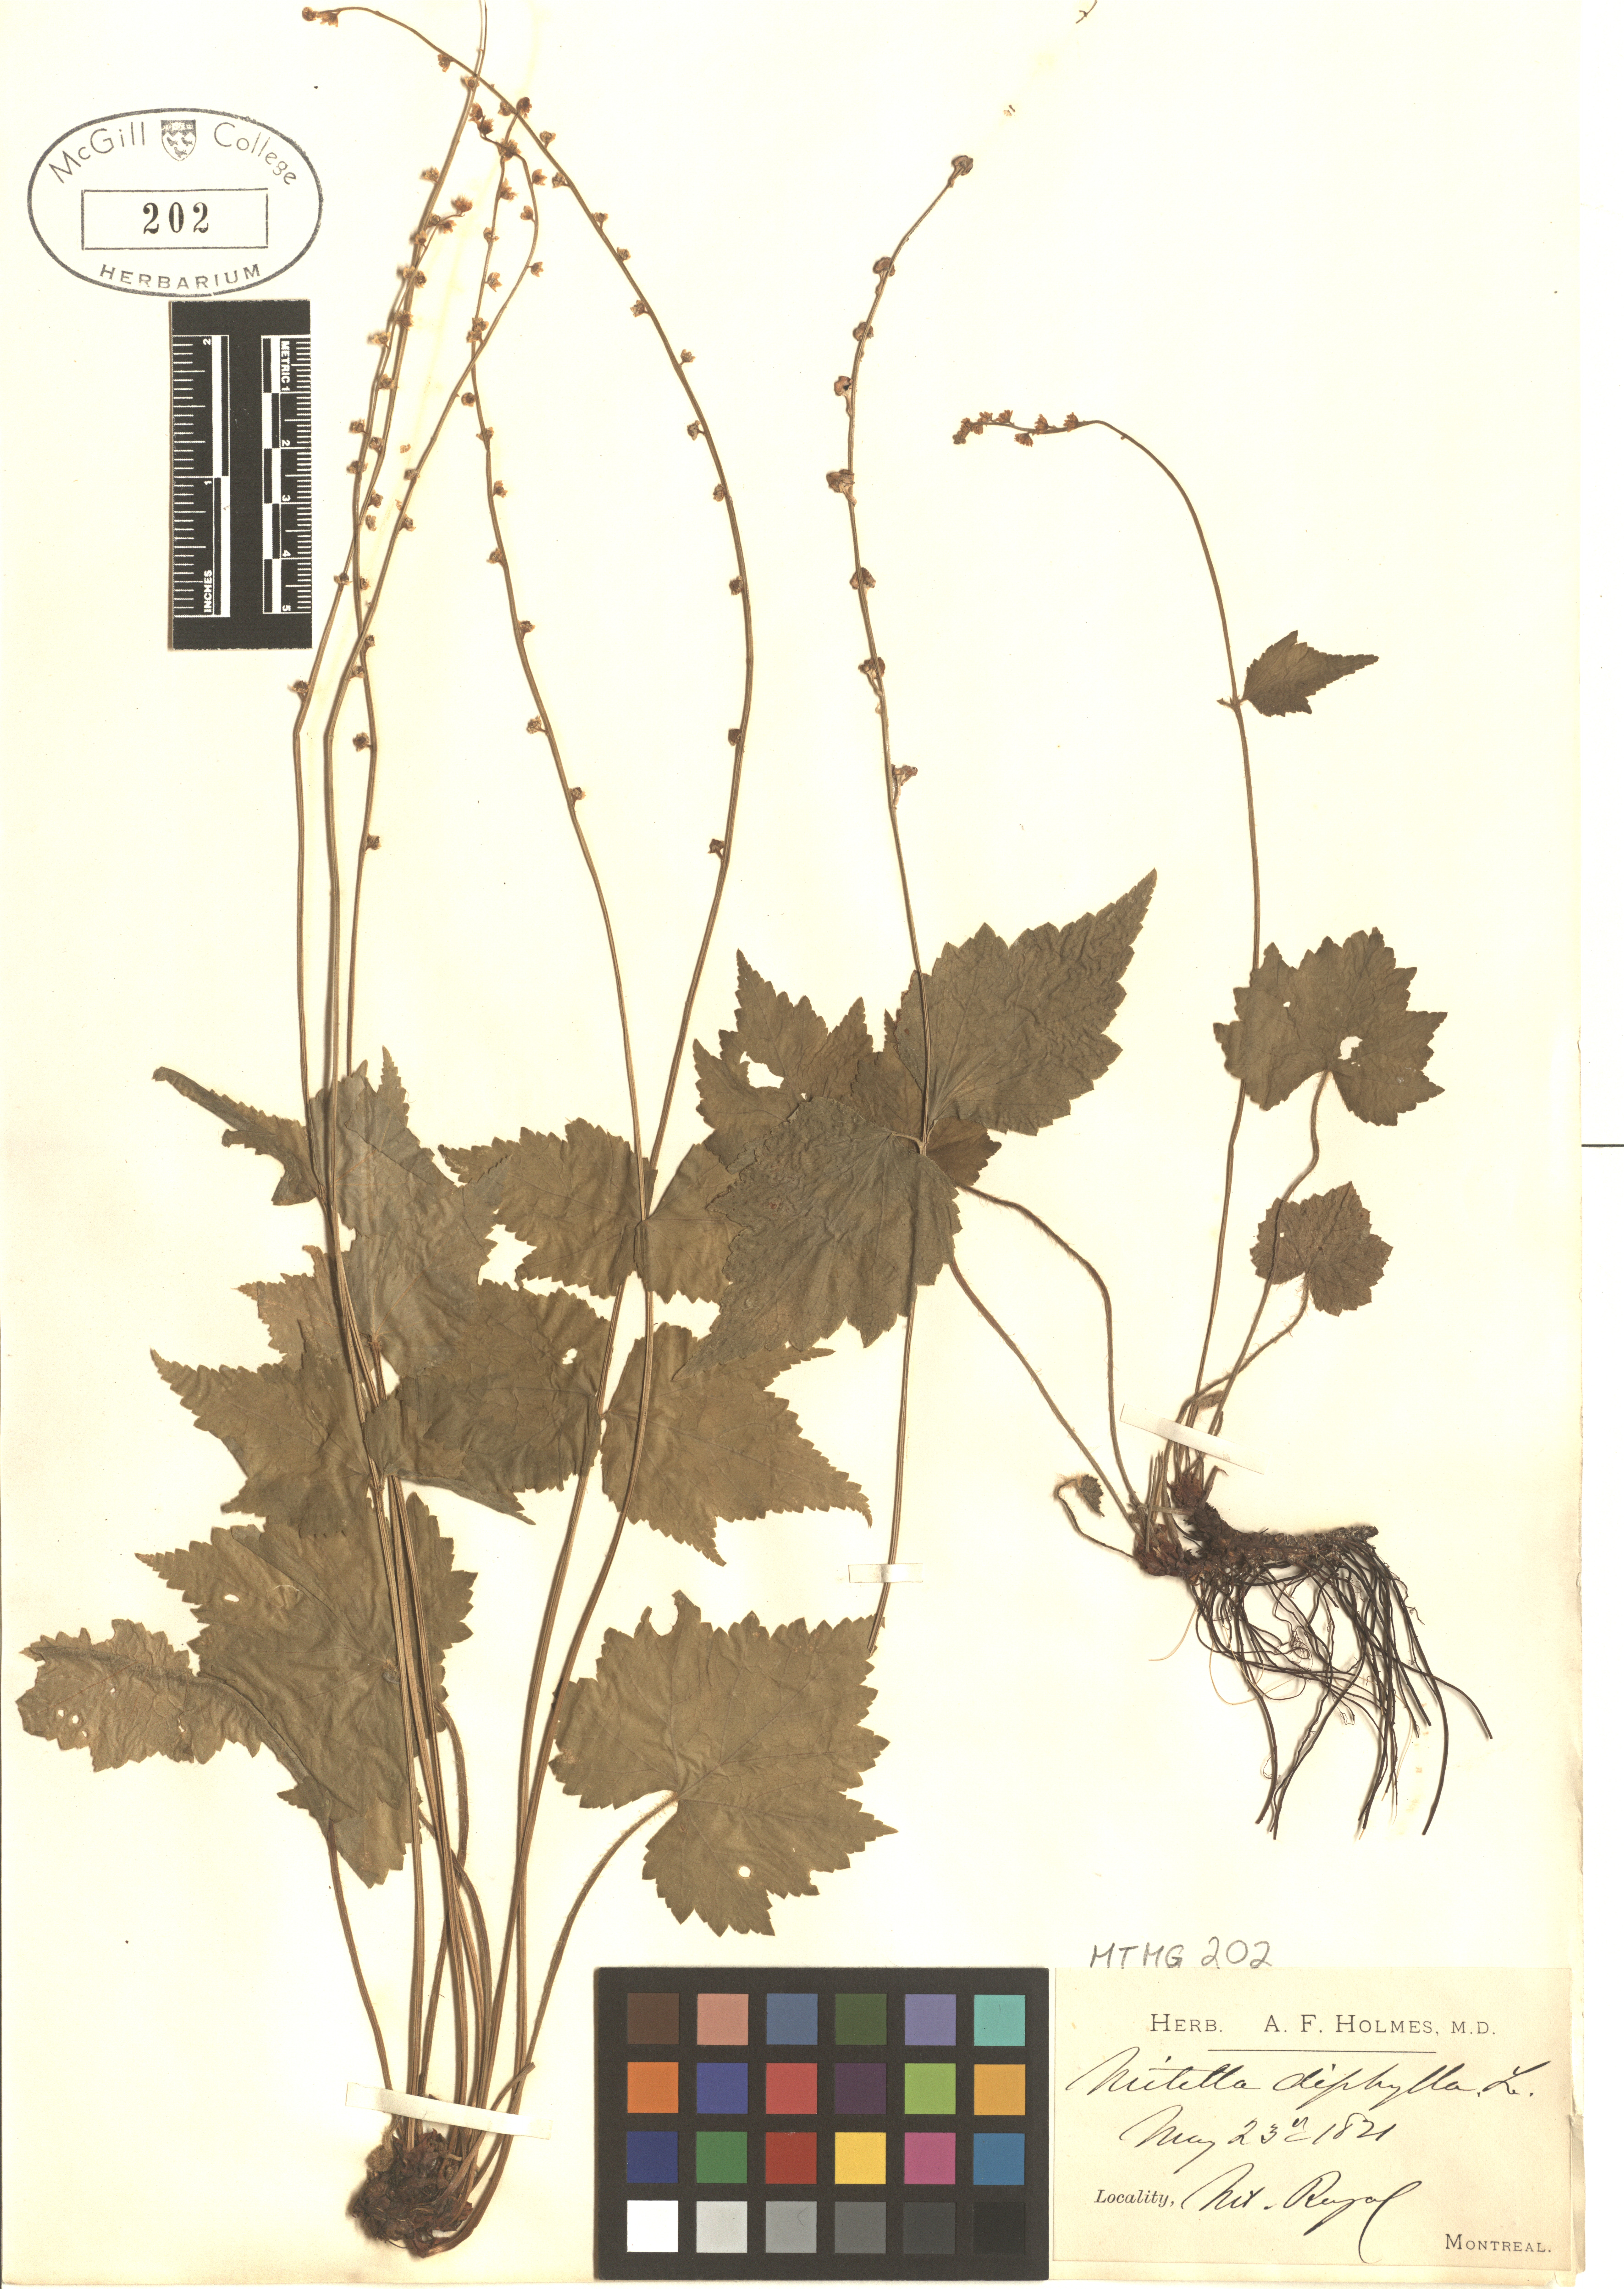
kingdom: Plantae
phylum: Tracheophyta
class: Magnoliopsida
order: Saxifragales
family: Saxifragaceae
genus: Mitella
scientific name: Mitella diphylla
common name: Coolwort
